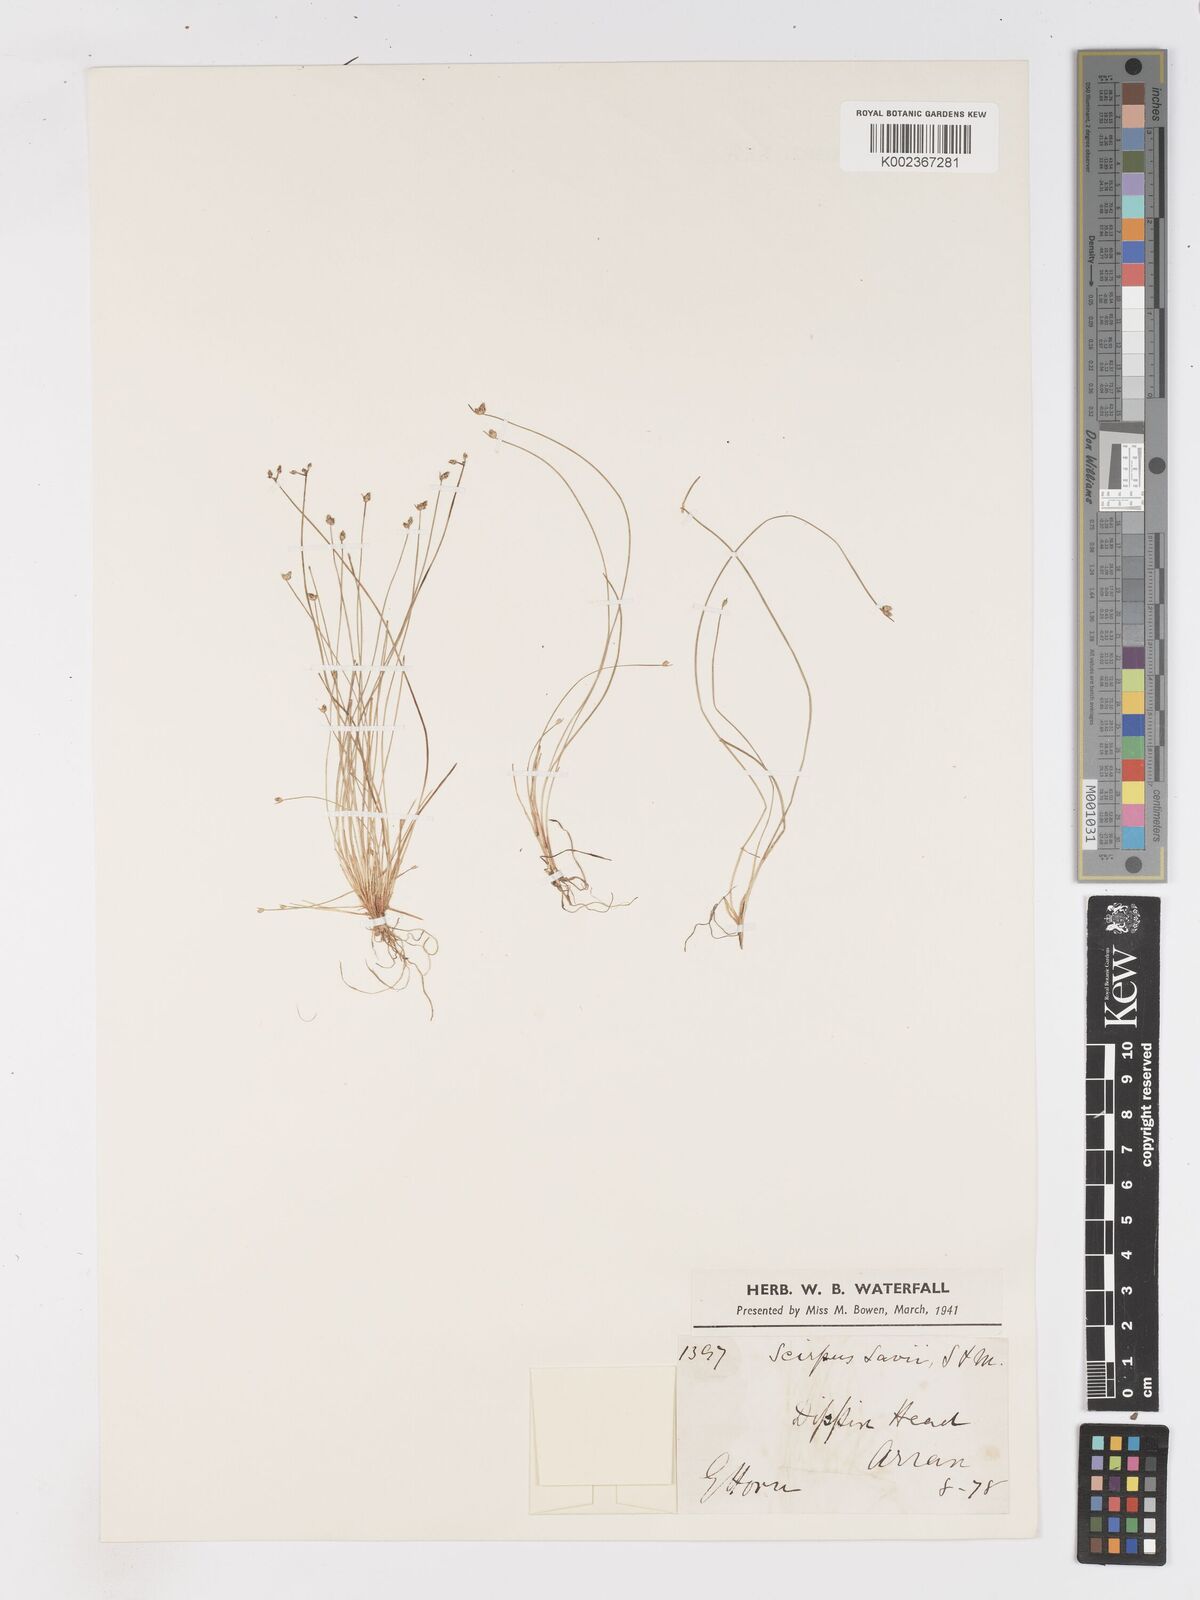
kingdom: Plantae
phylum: Tracheophyta
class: Liliopsida
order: Poales
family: Cyperaceae
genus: Isolepis
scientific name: Isolepis cernua
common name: Slender club-rush
